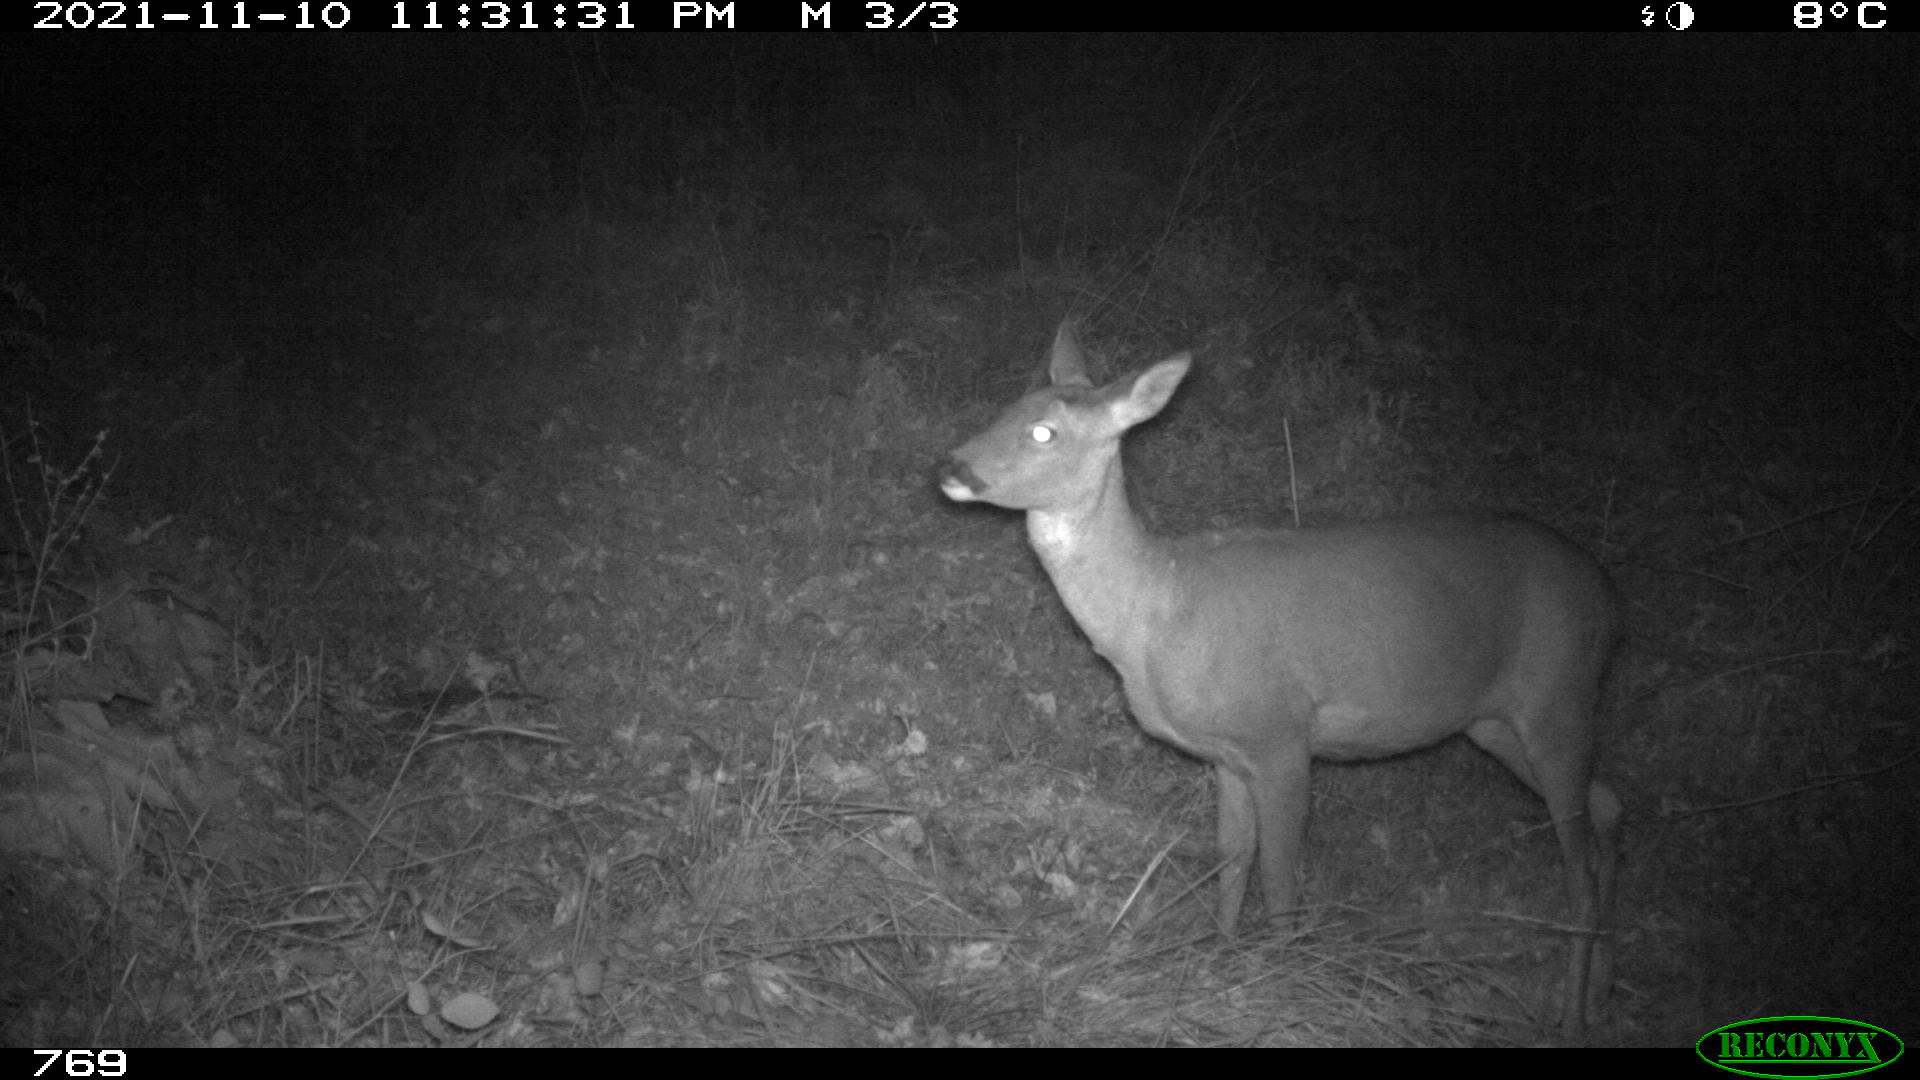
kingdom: Animalia
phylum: Chordata
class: Mammalia
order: Artiodactyla
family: Cervidae
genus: Capreolus
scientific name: Capreolus capreolus
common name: Western roe deer
